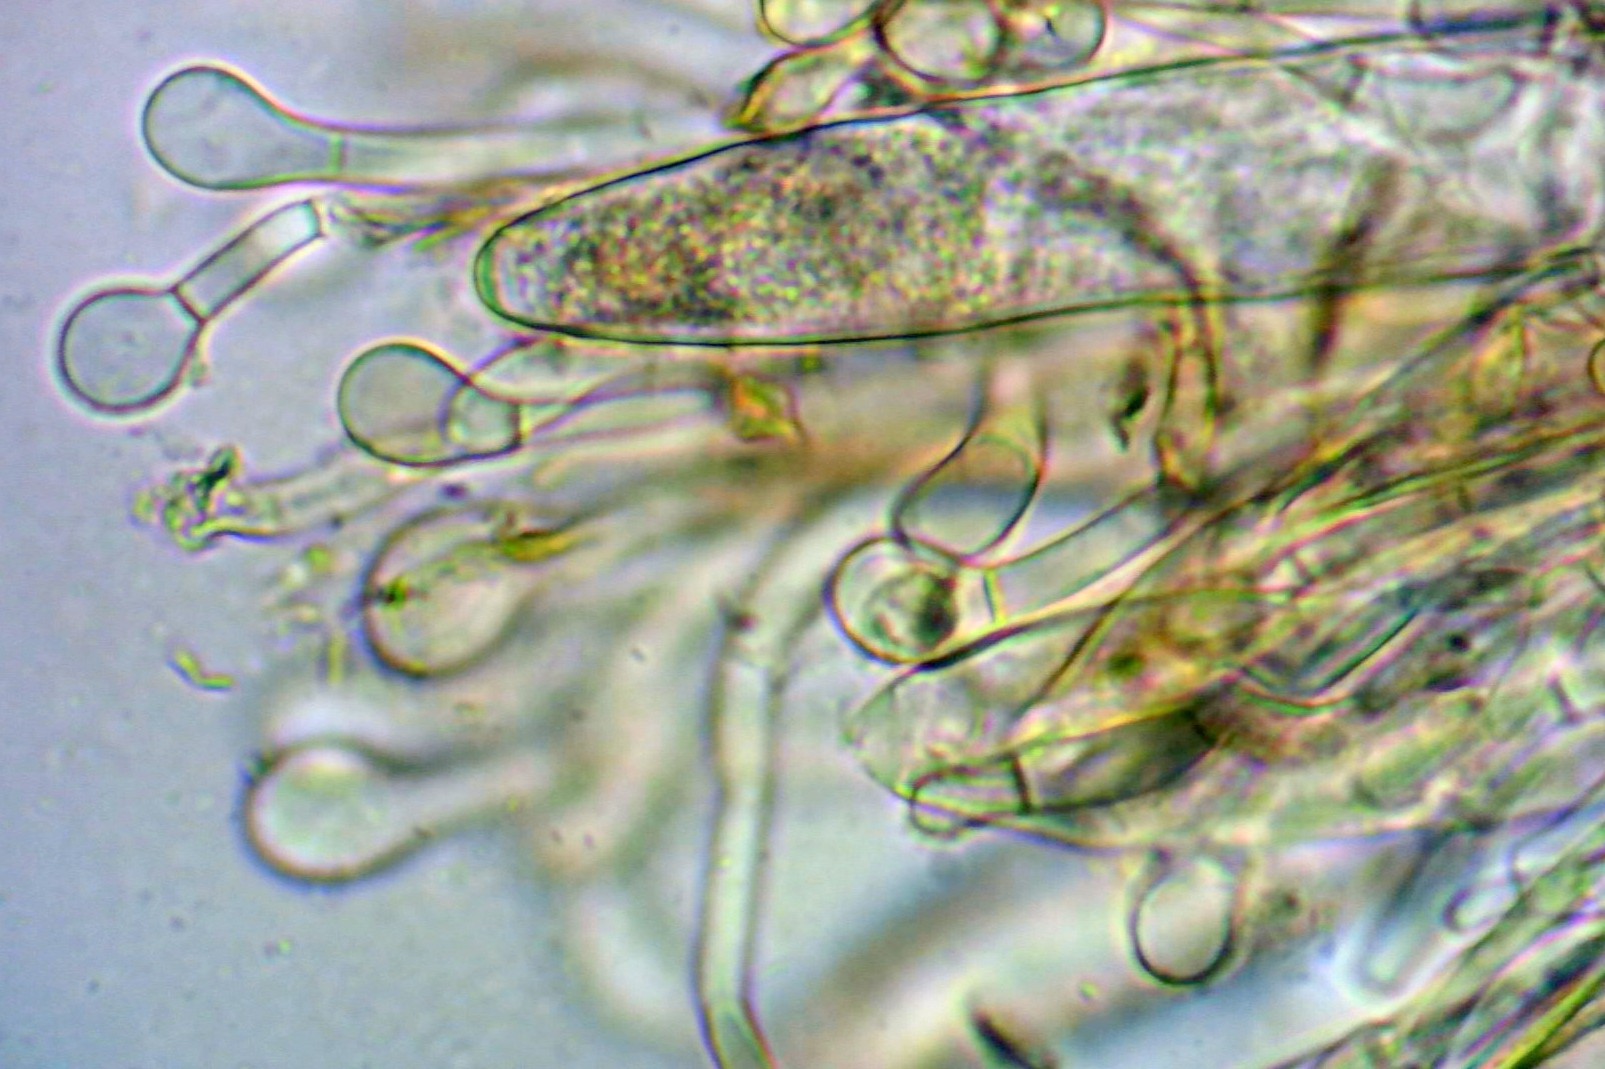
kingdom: Fungi
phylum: Ascomycota
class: Geoglossomycetes
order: Geoglossales
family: Geoglossaceae
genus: Geoglossum
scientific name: Geoglossum fallax
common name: småskællet jordtunge
